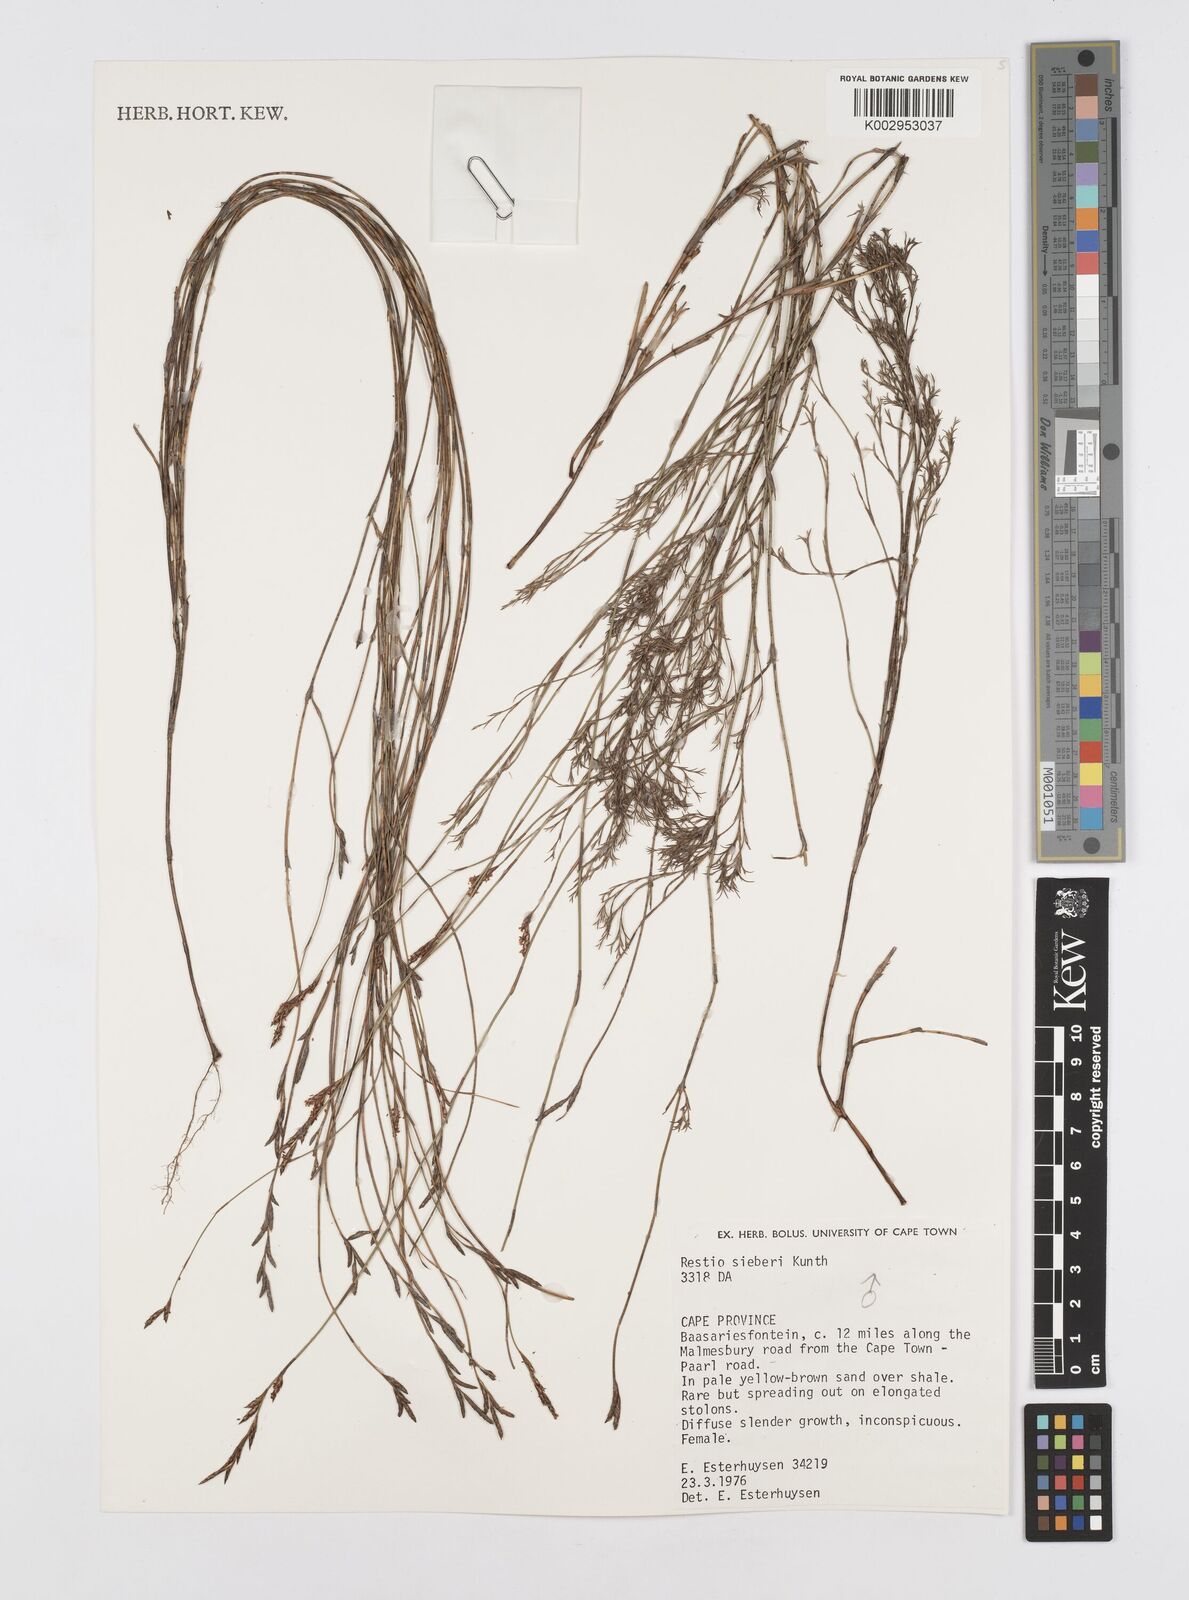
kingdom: Plantae
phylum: Tracheophyta
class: Liliopsida
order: Poales
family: Restionaceae
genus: Restio
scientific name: Restio sieberi
